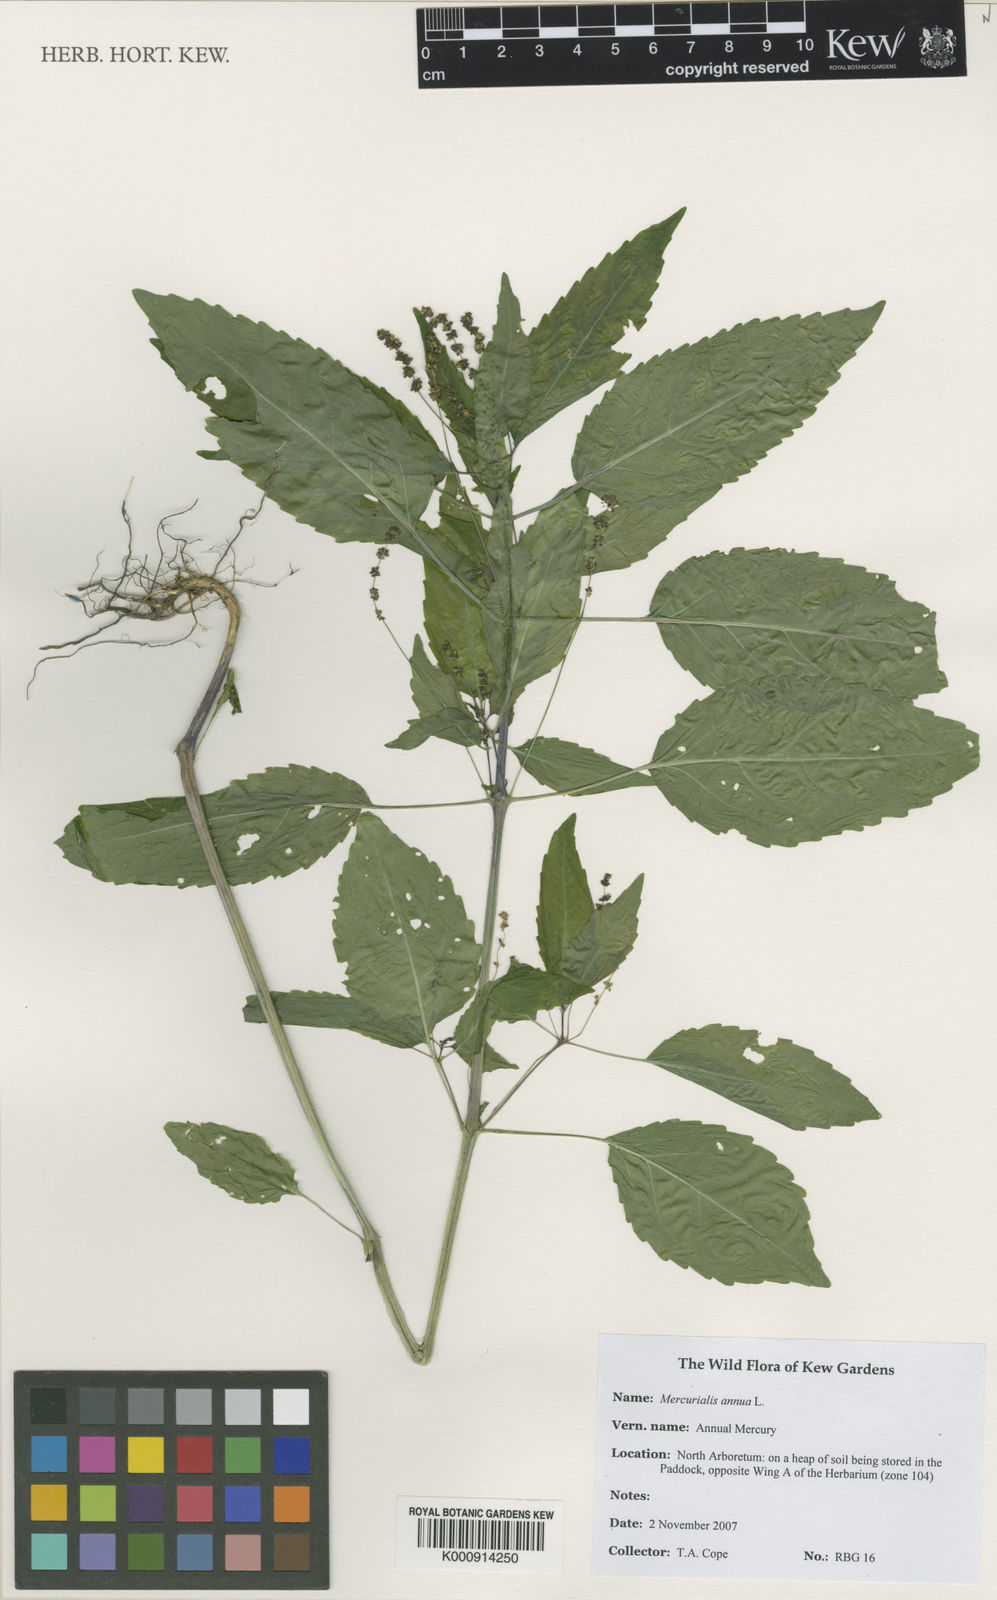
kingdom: Plantae
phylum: Tracheophyta
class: Magnoliopsida
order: Malpighiales
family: Euphorbiaceae
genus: Mercurialis
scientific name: Mercurialis annua
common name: Annual mercury
